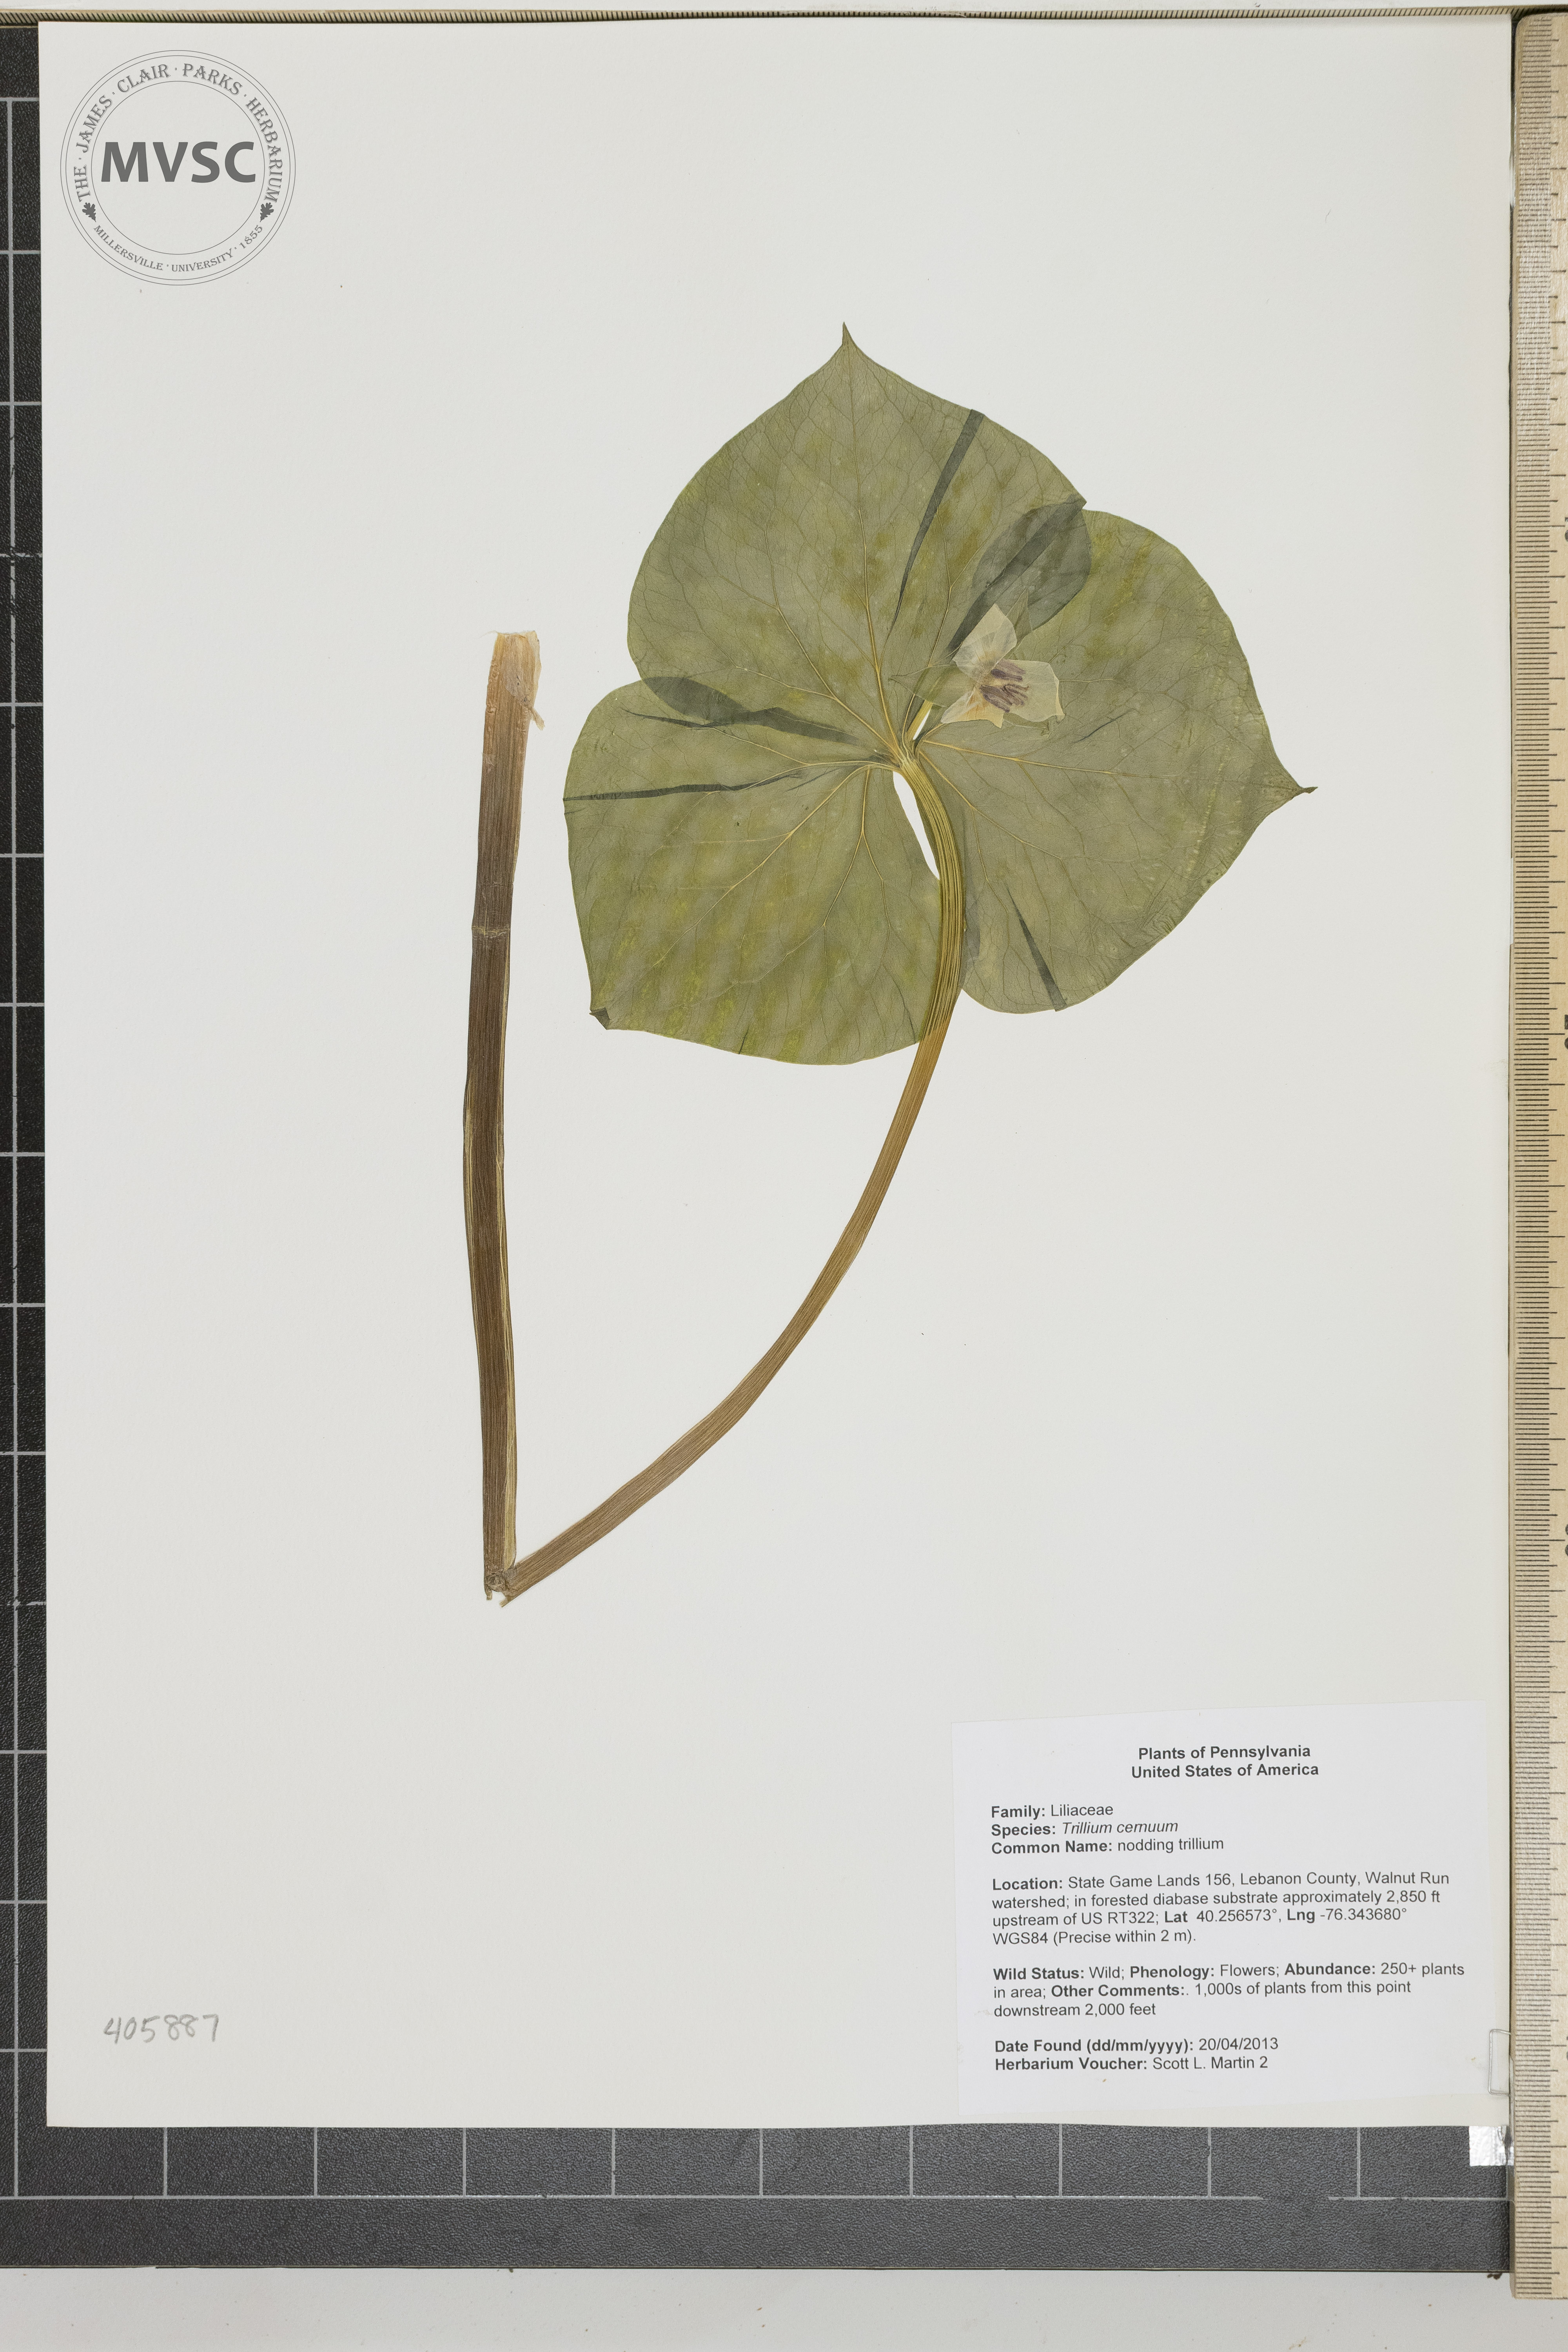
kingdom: Plantae
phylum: Tracheophyta
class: Liliopsida
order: Liliales
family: Melanthiaceae
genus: Trillium
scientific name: Trillium cernuum
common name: nodding trillium
